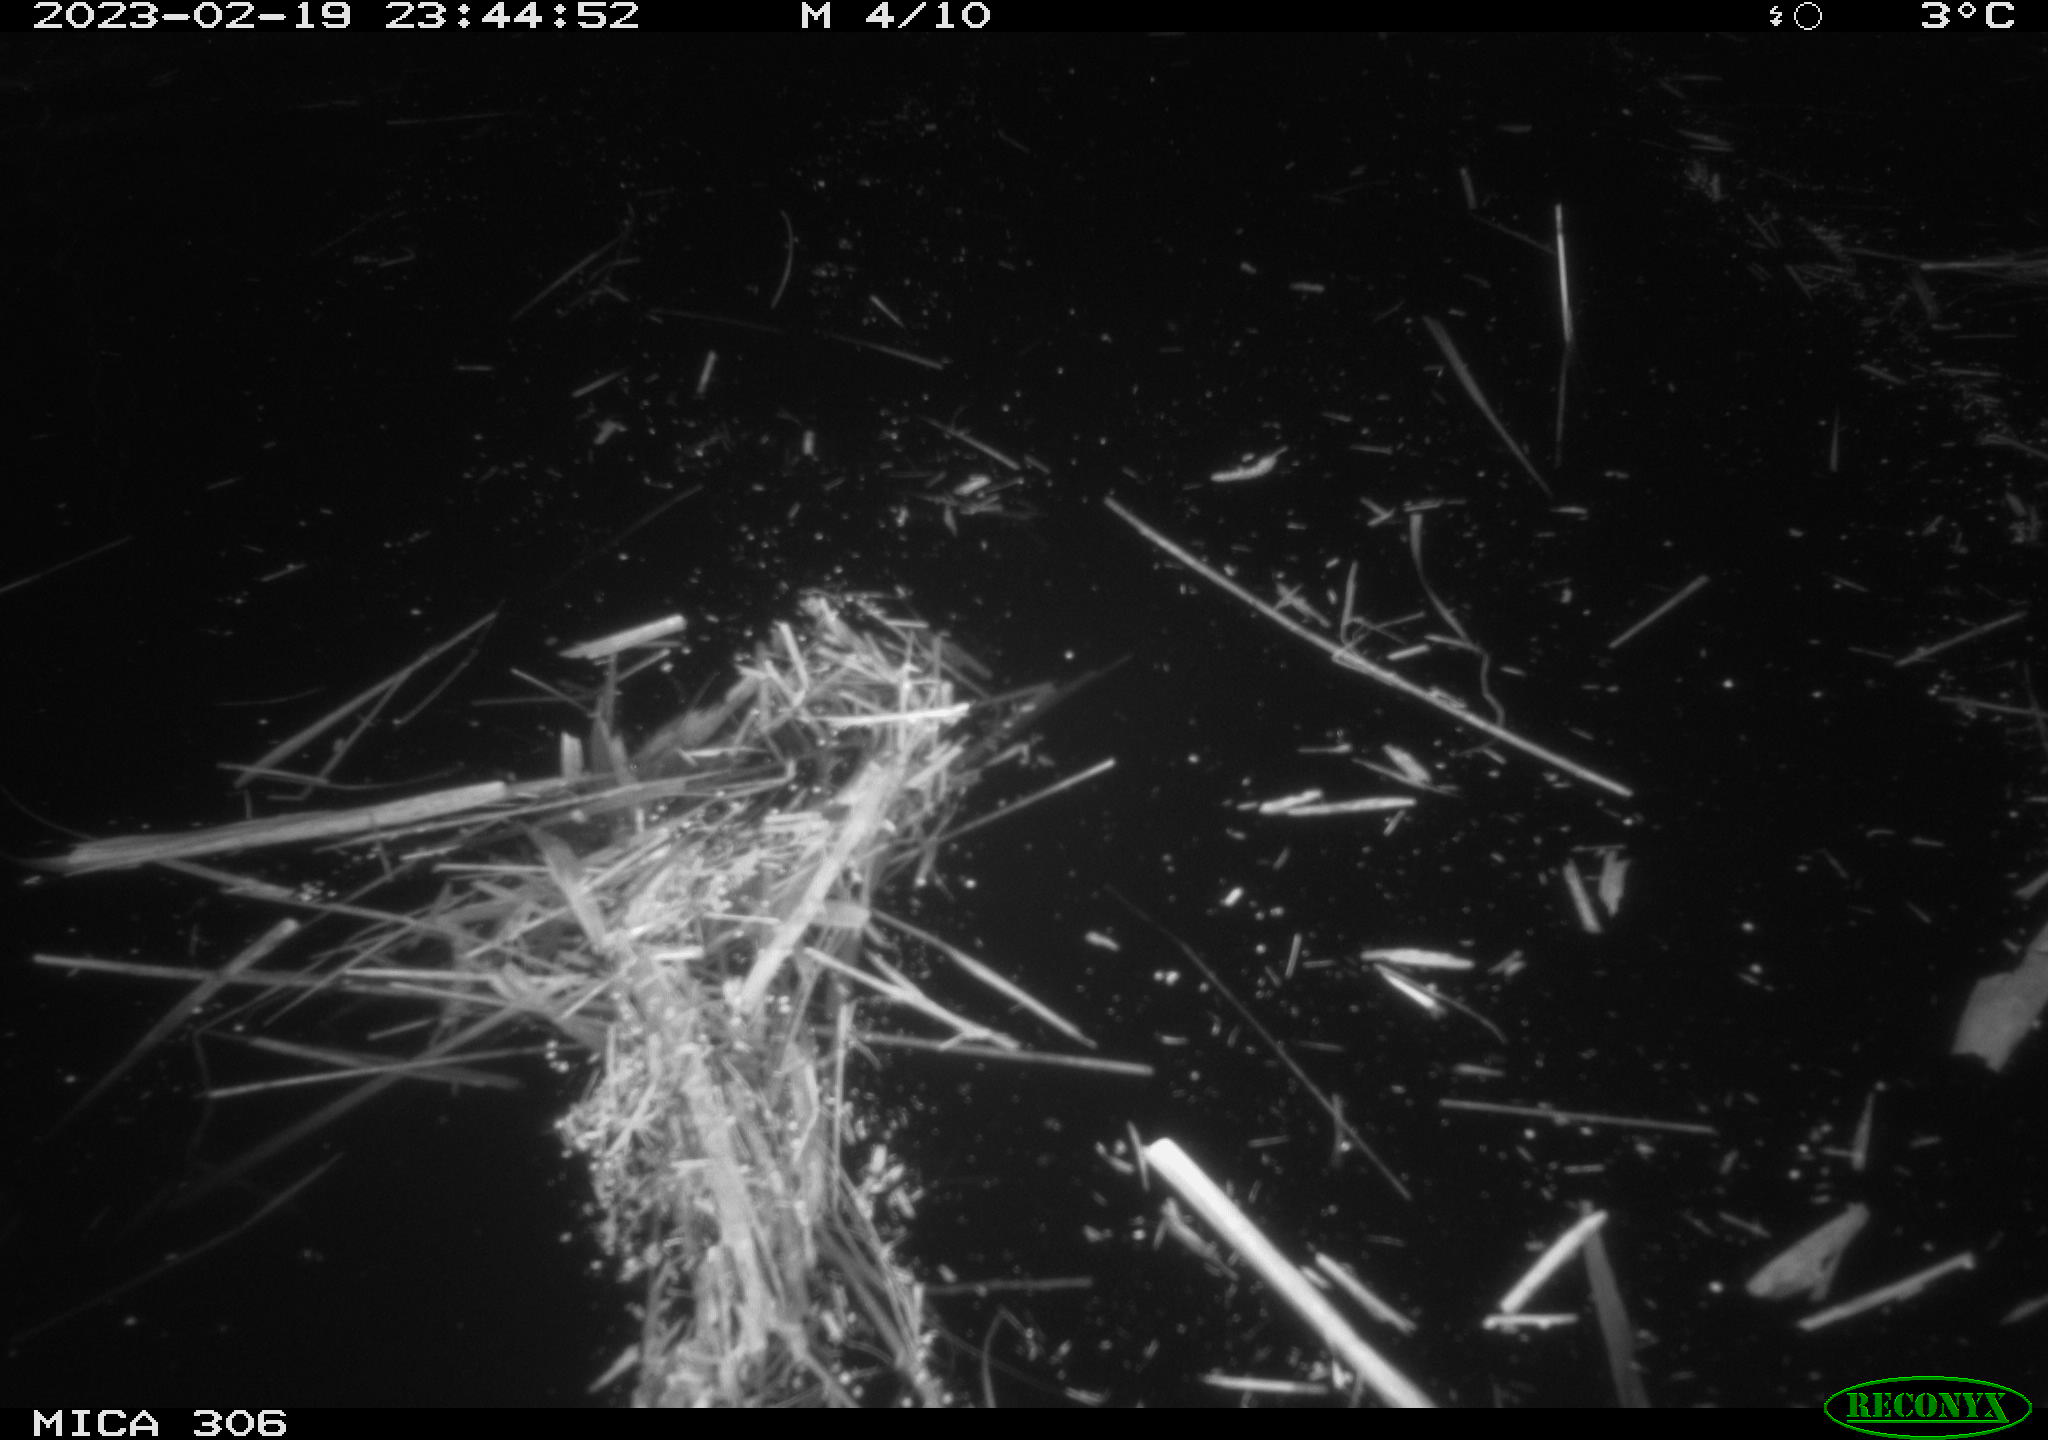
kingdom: Animalia
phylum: Chordata
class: Mammalia
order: Rodentia
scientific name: Rodentia
